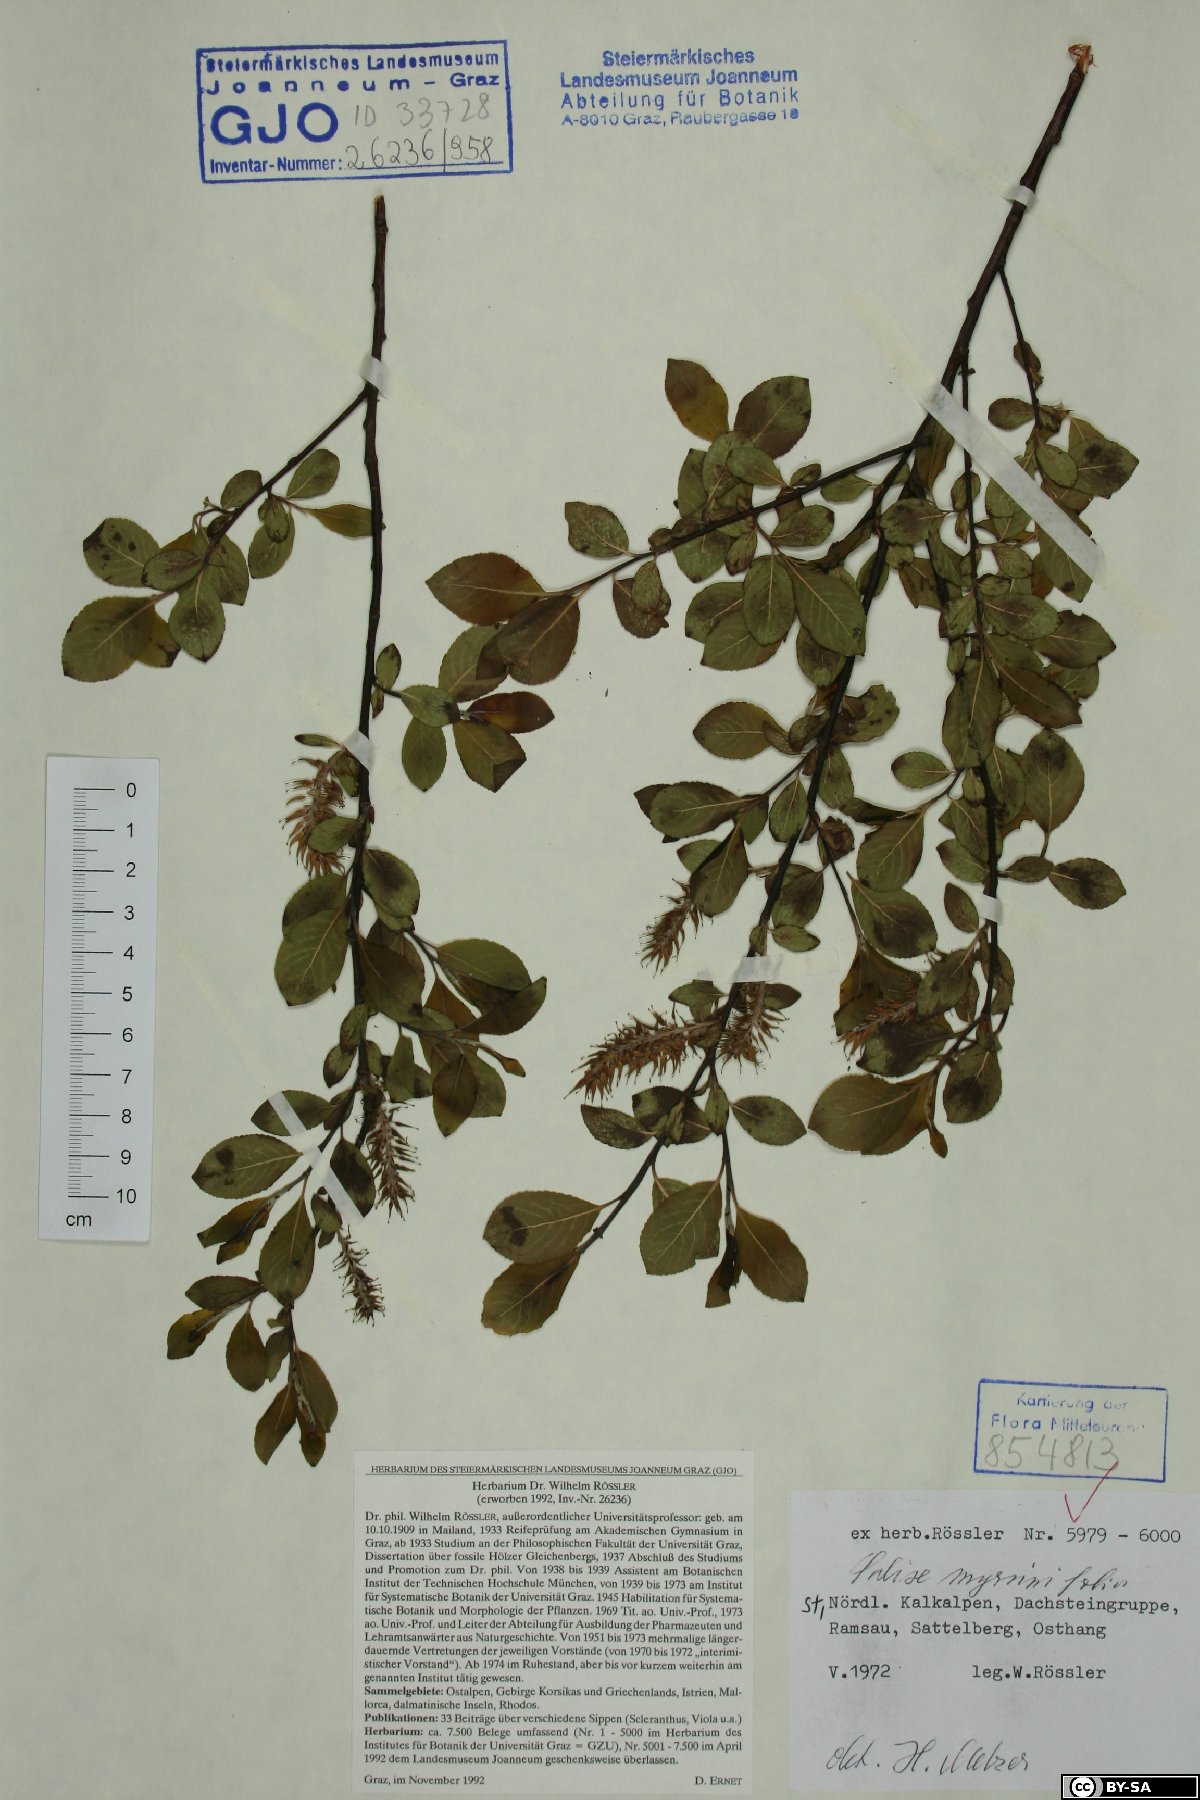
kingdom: Plantae
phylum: Tracheophyta
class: Magnoliopsida
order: Malpighiales
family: Salicaceae
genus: Salix
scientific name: Salix myrsinifolia
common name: Dark-leaved willow
